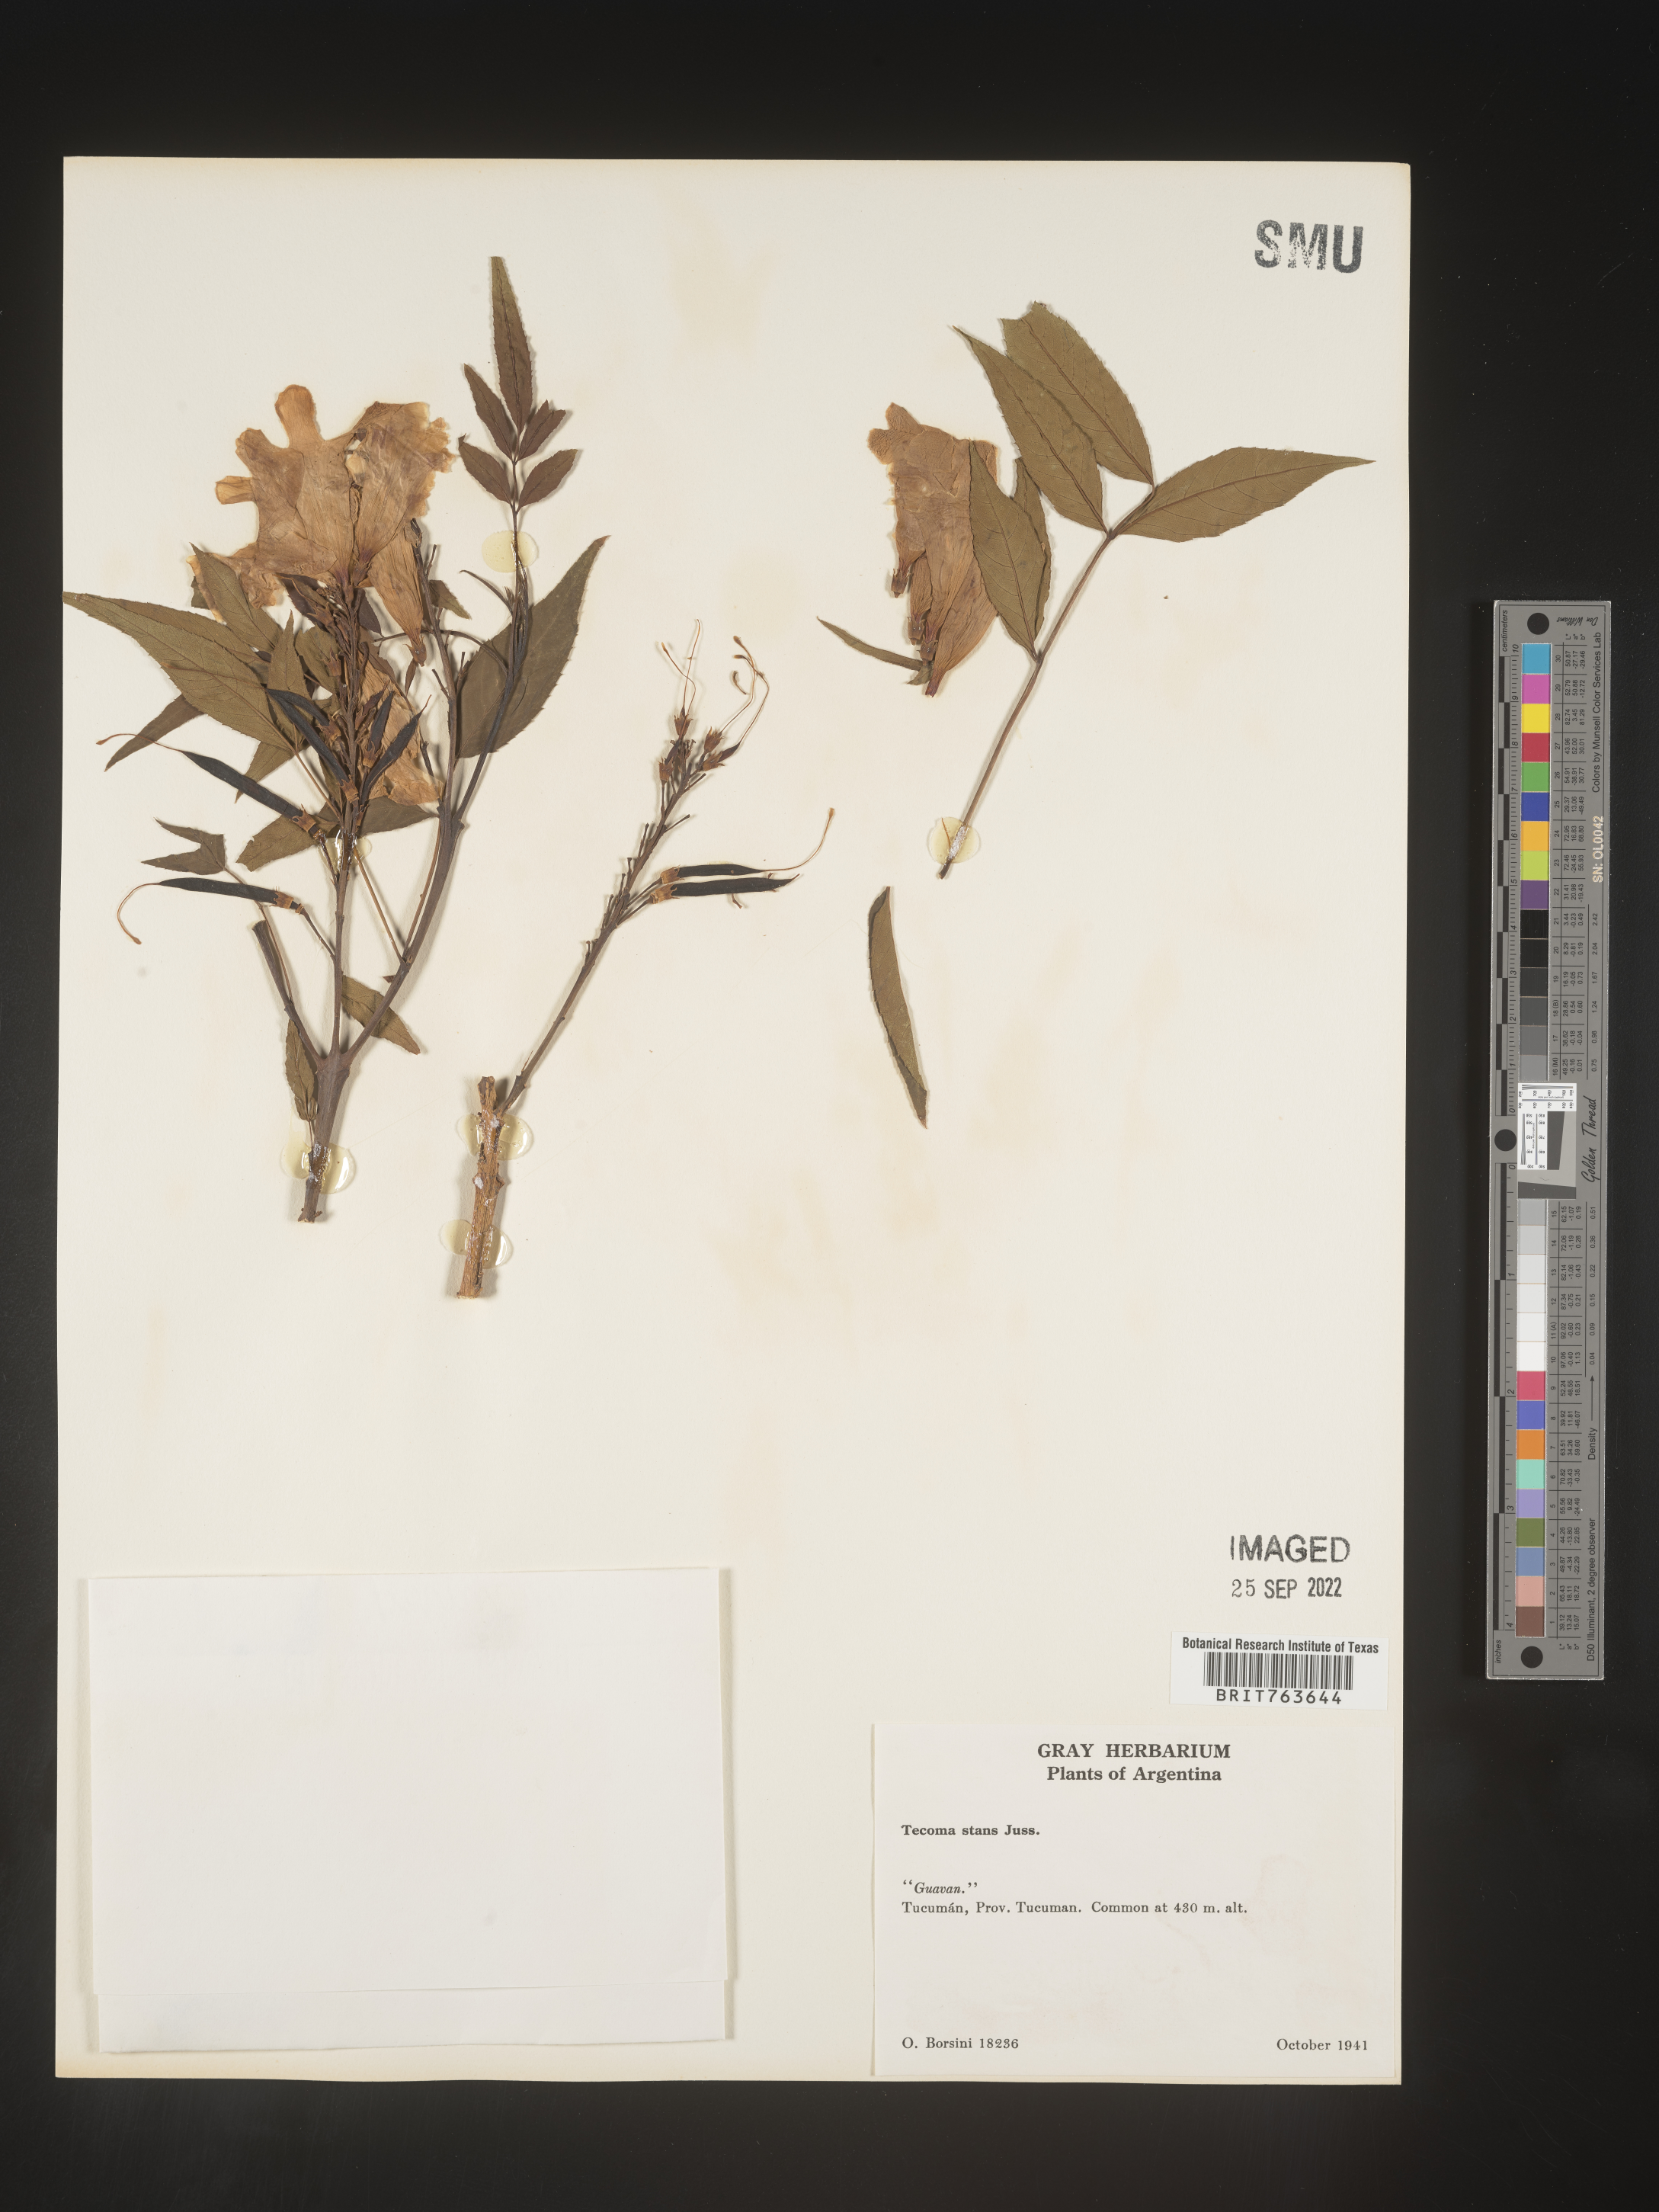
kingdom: Plantae
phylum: Tracheophyta
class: Magnoliopsida
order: Lamiales
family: Bignoniaceae
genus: Tecoma
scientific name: Tecoma
